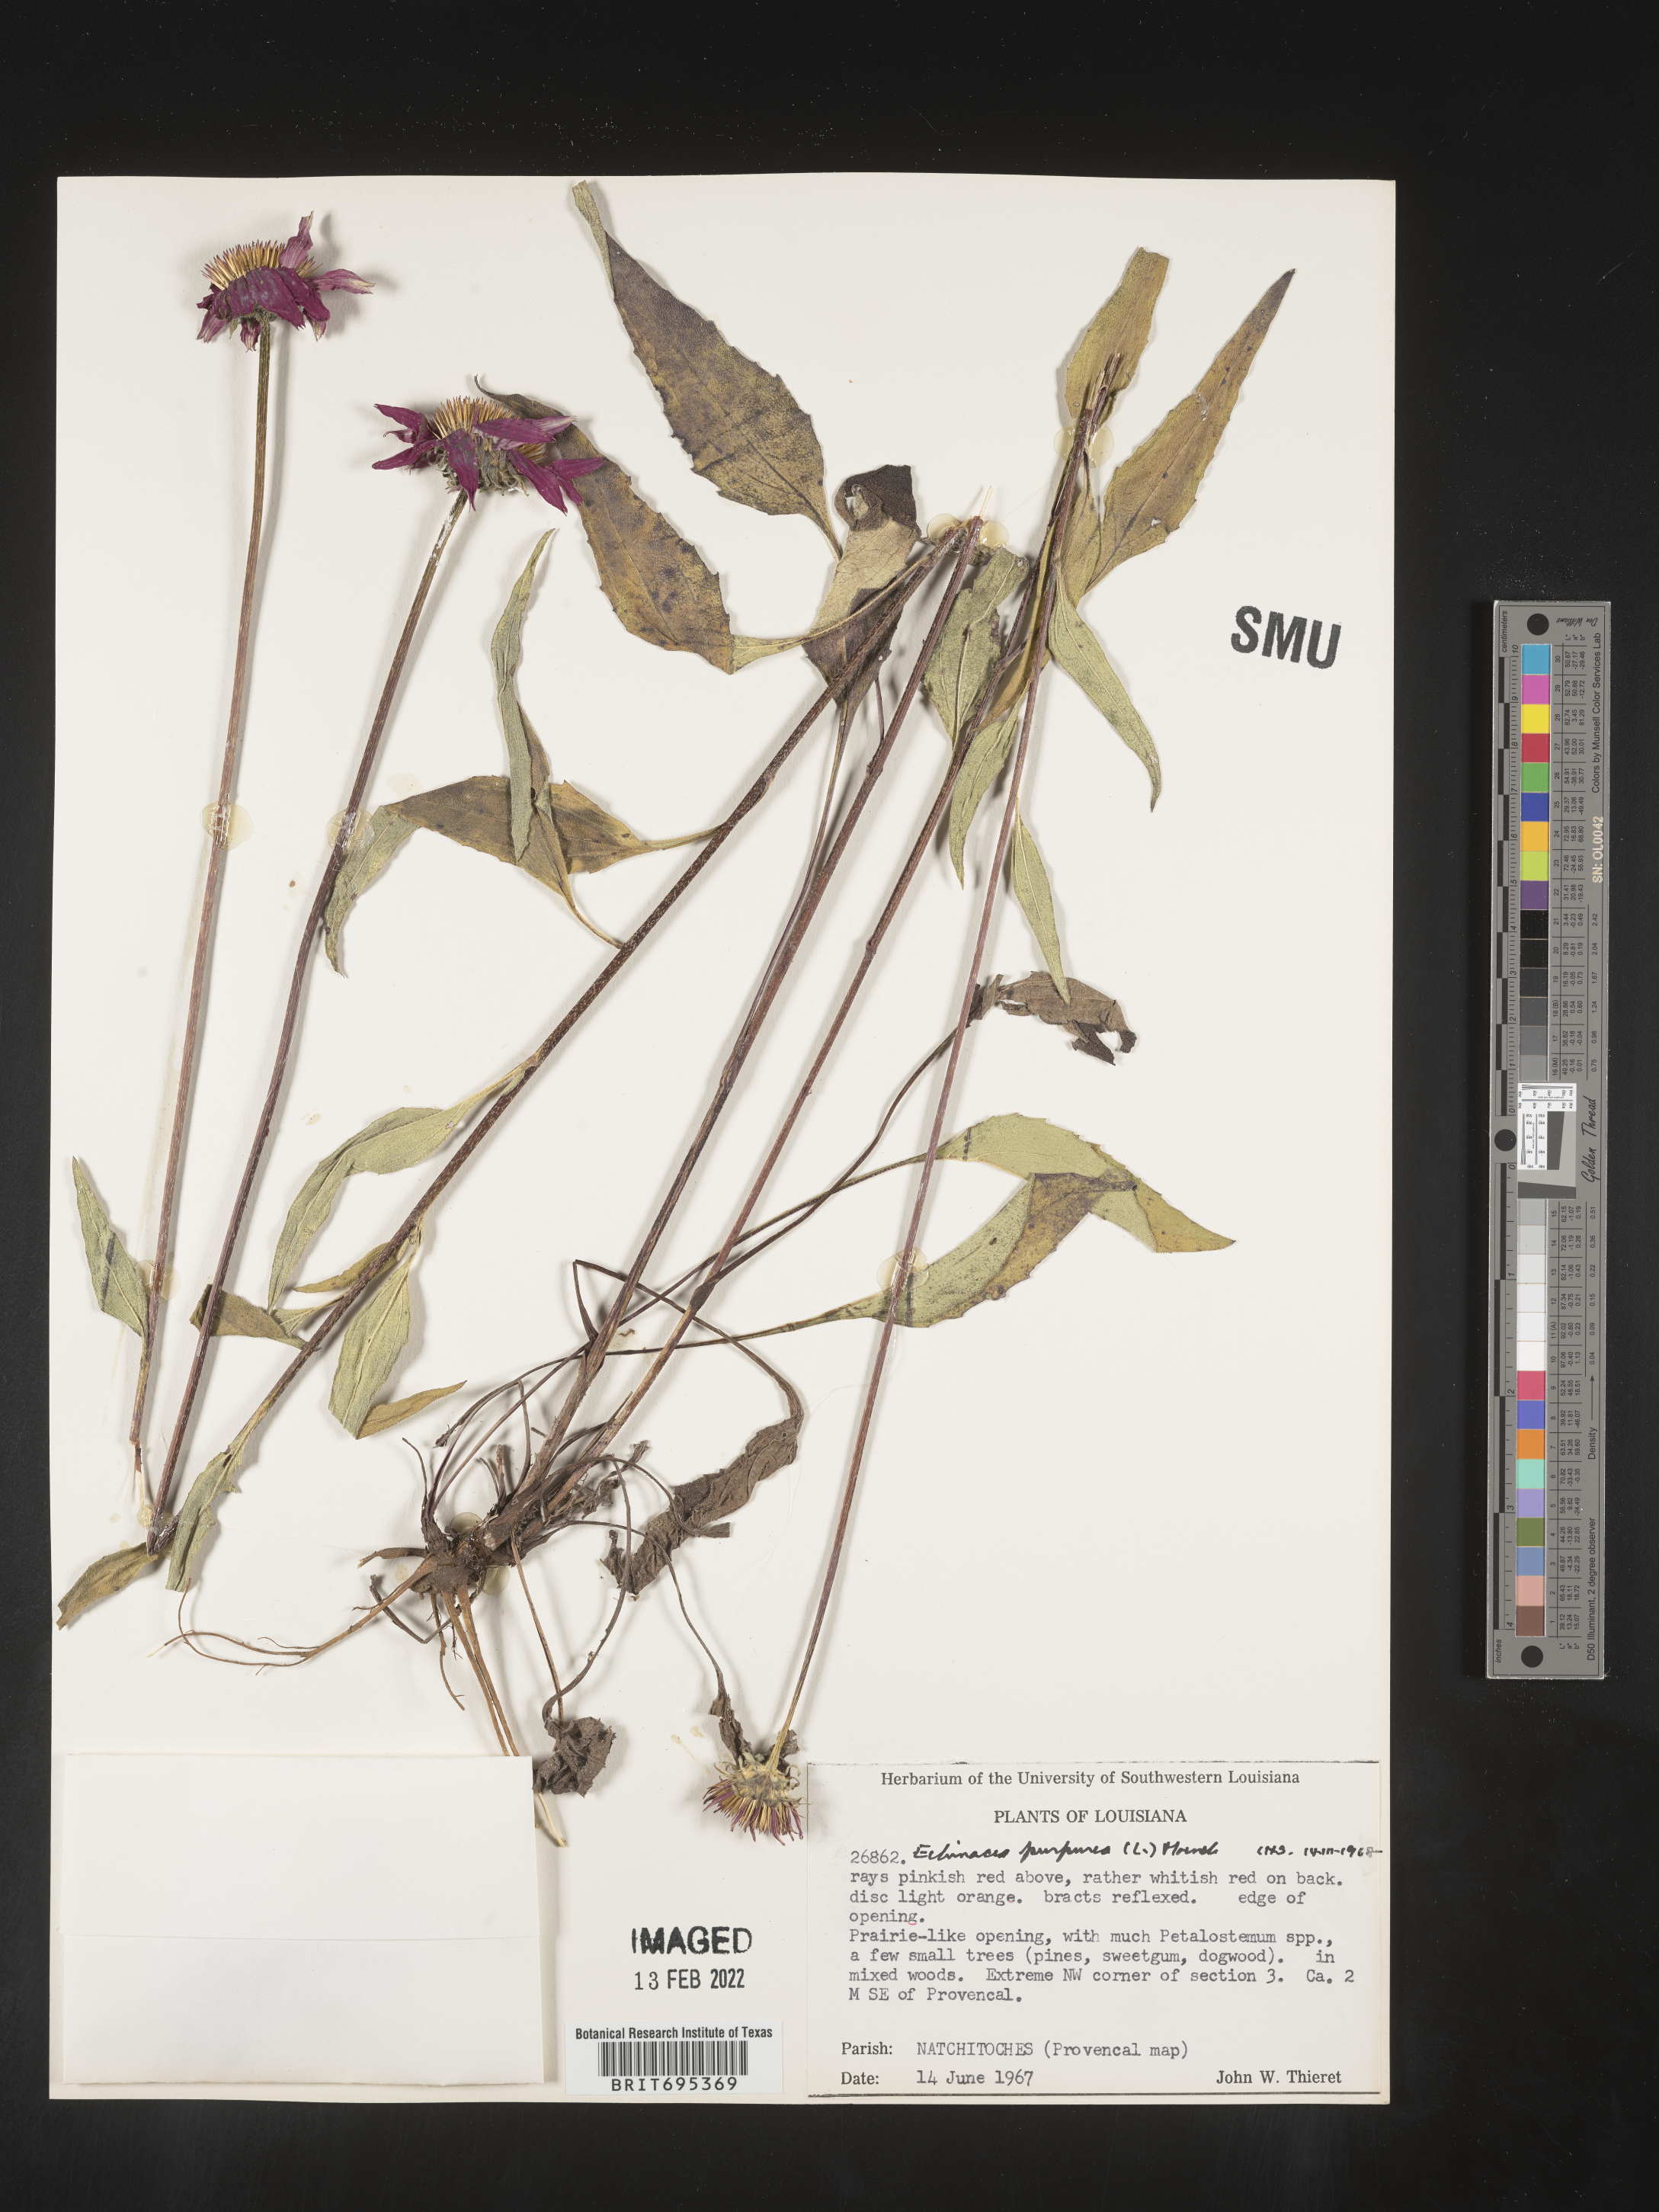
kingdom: Plantae
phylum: Tracheophyta
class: Magnoliopsida
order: Asterales
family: Asteraceae
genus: Echinacea
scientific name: Echinacea purpurea
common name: Broad-leaved purple coneflower
